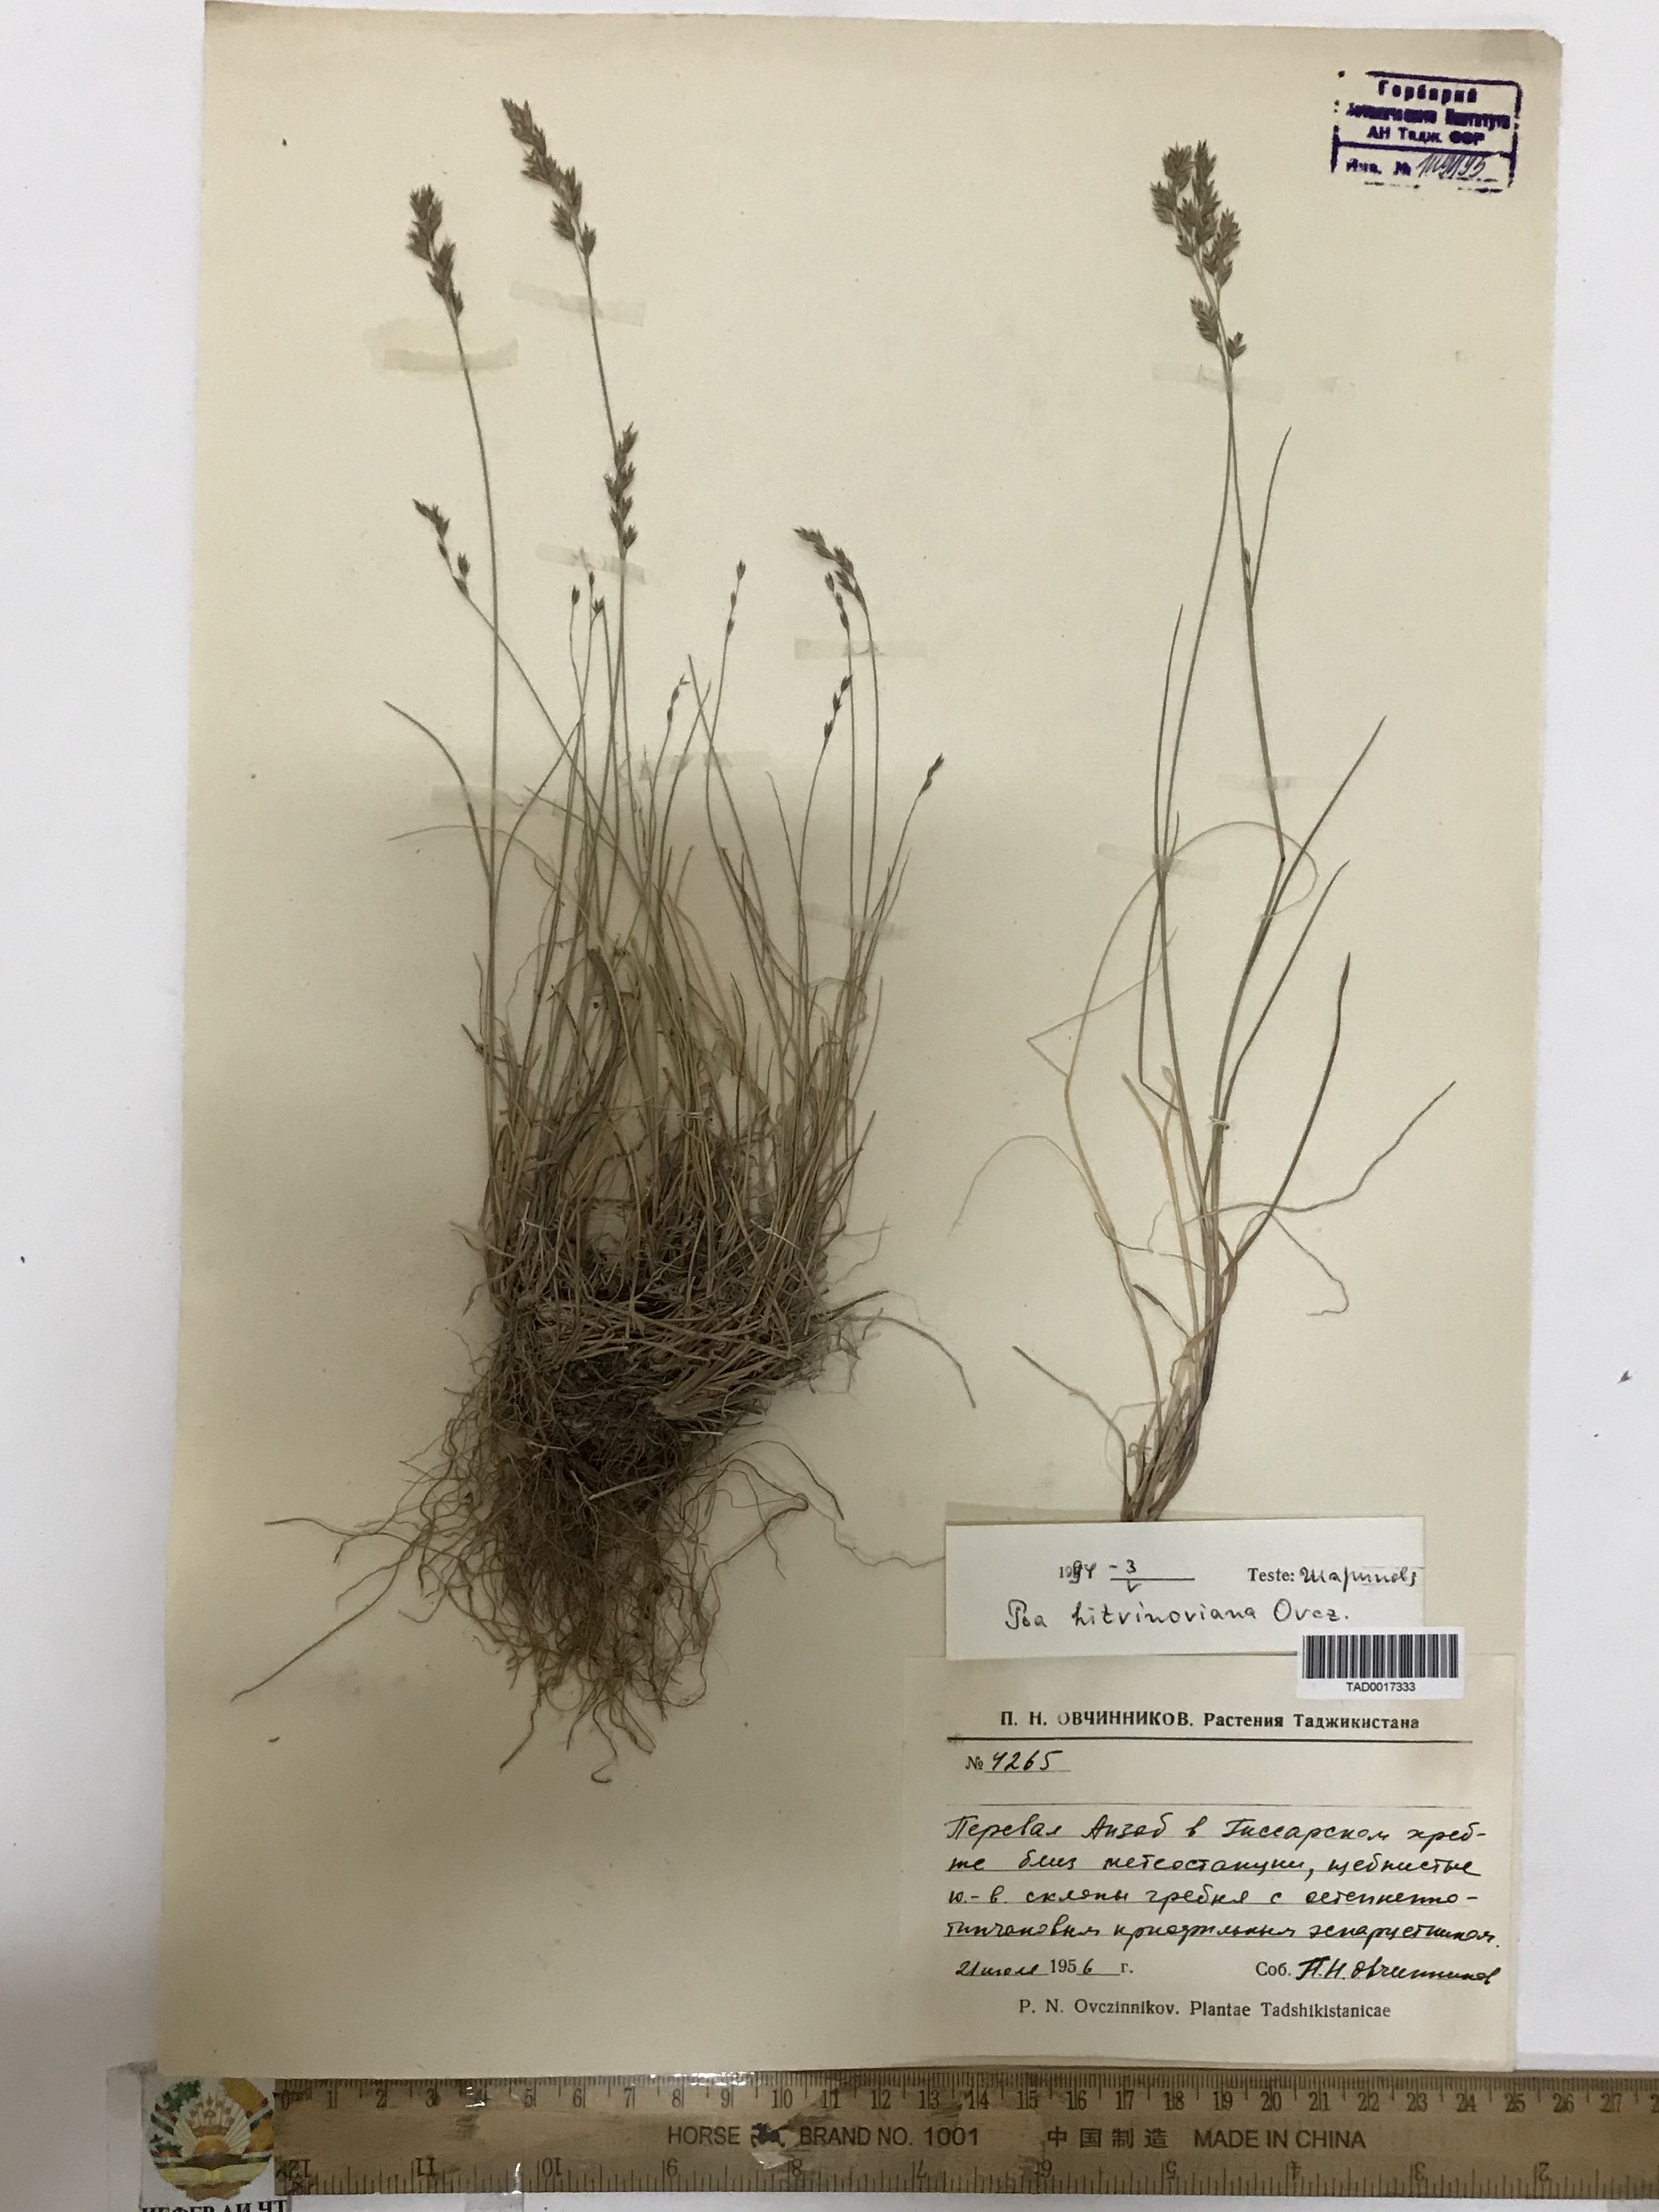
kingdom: Plantae
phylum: Tracheophyta
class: Liliopsida
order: Poales
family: Poaceae
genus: Poa
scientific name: Poa glauca
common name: Glaucous bluegrass
